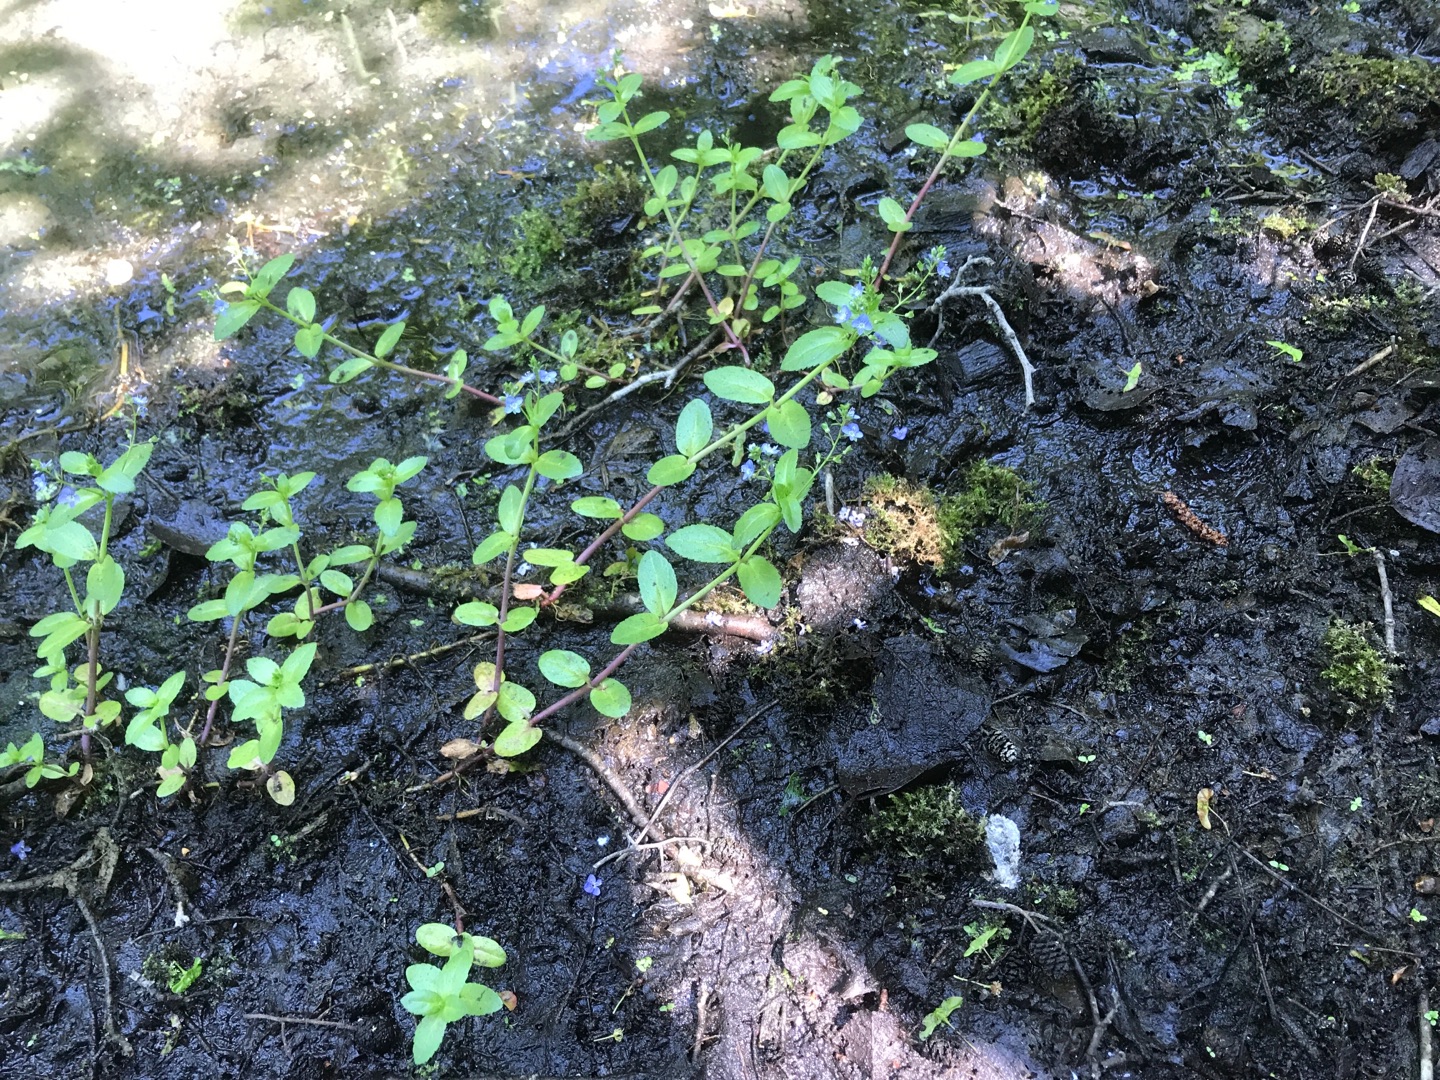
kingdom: Plantae
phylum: Tracheophyta
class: Magnoliopsida
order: Lamiales
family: Plantaginaceae
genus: Veronica
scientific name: Veronica beccabunga
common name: Tykbladet ærenpris
